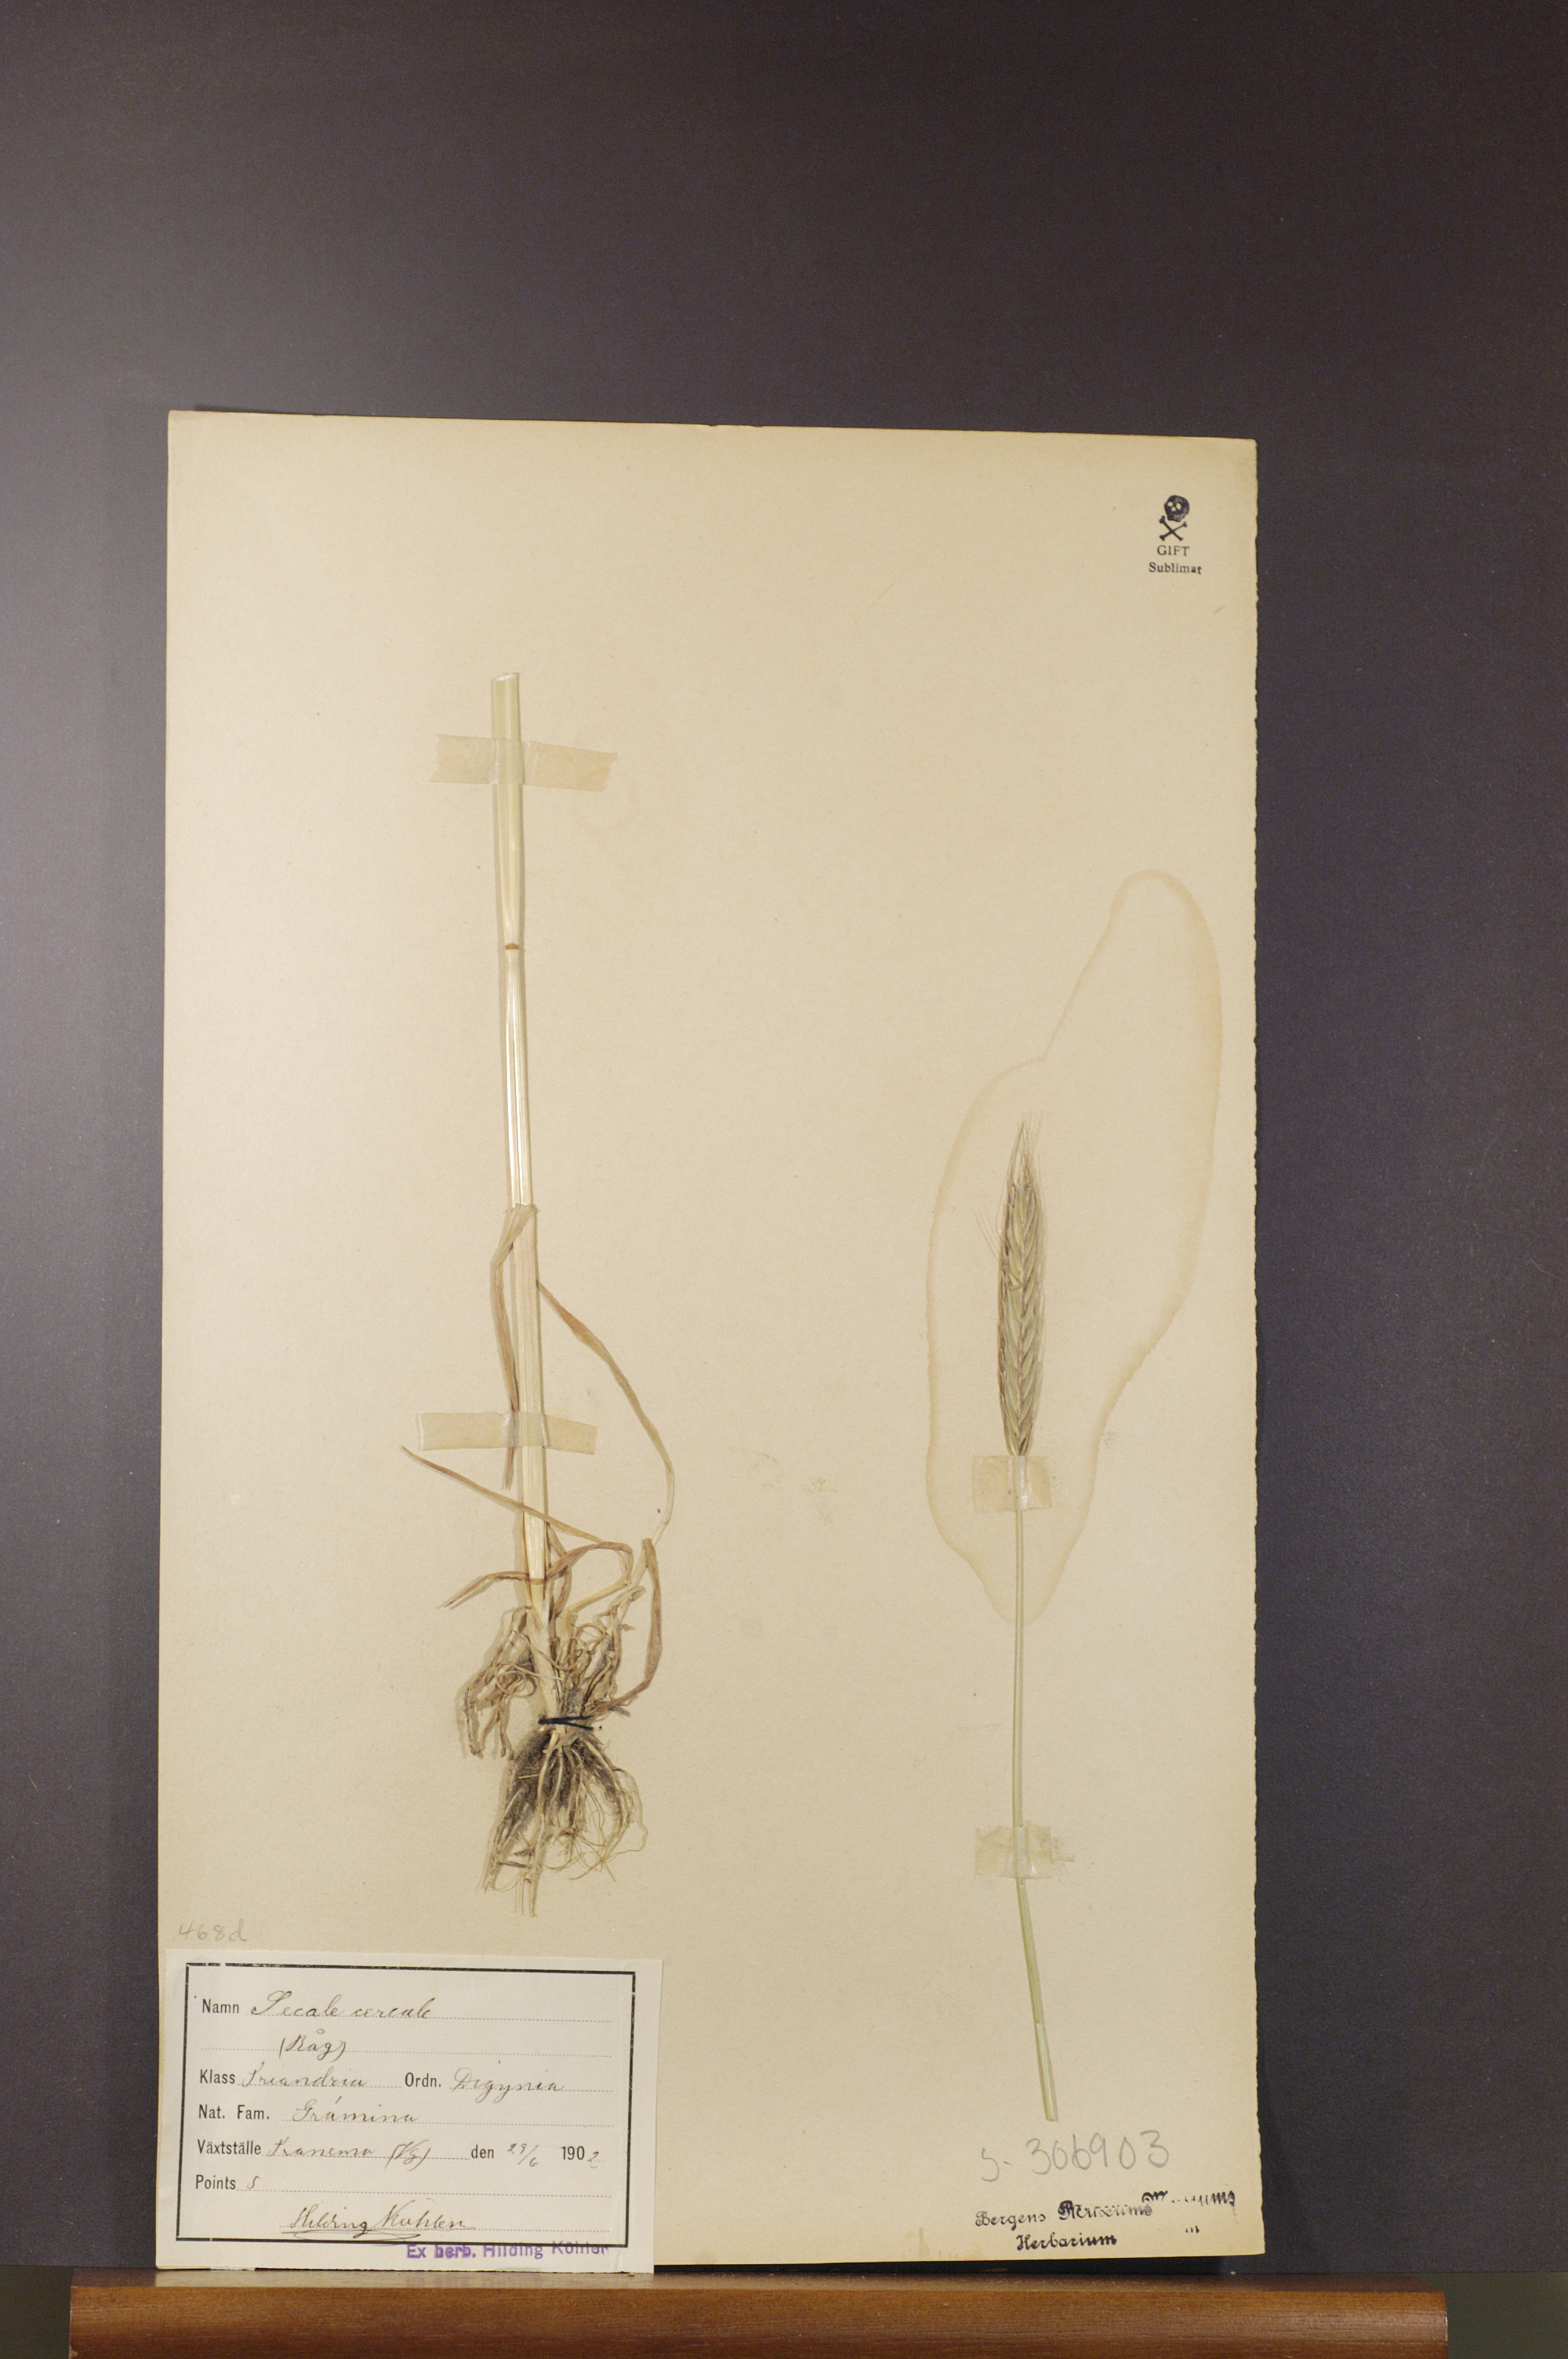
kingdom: Plantae
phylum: Tracheophyta
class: Liliopsida
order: Poales
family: Poaceae
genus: Secale
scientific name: Secale cereale
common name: Rye
